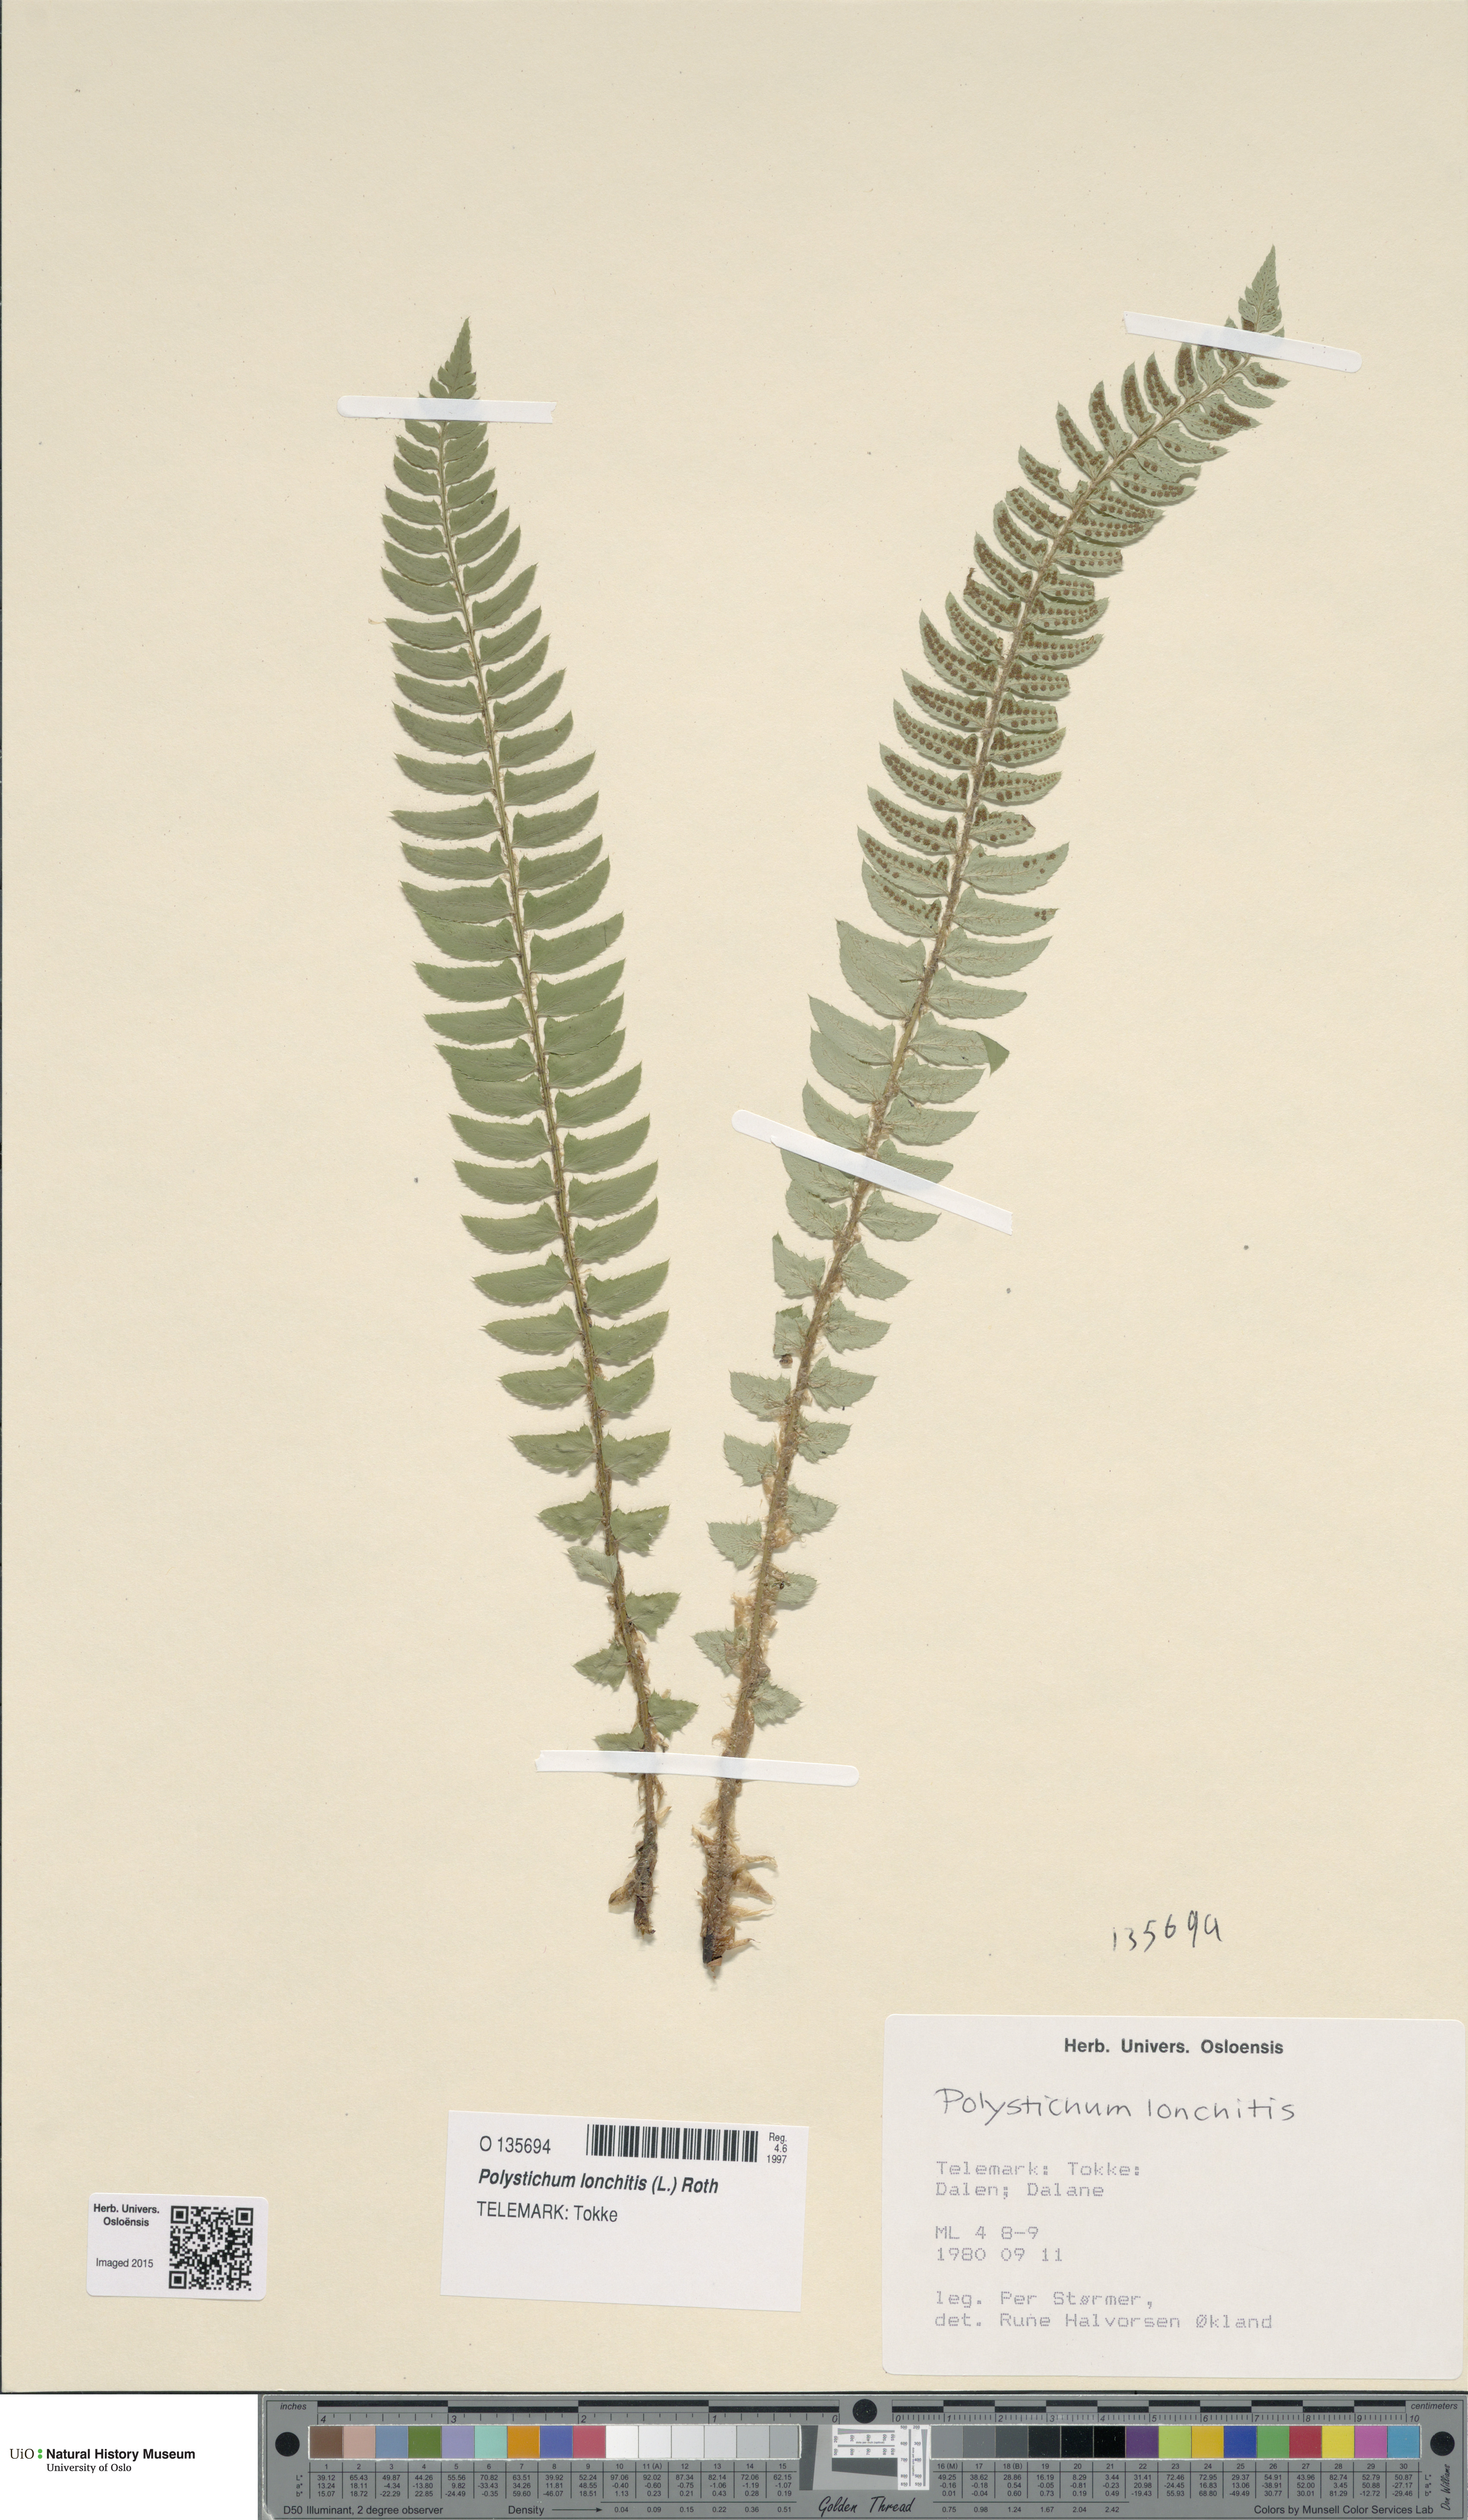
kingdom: Plantae
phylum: Tracheophyta
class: Polypodiopsida
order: Polypodiales
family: Dryopteridaceae
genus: Polystichum
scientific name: Polystichum lonchitis
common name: Holly fern
